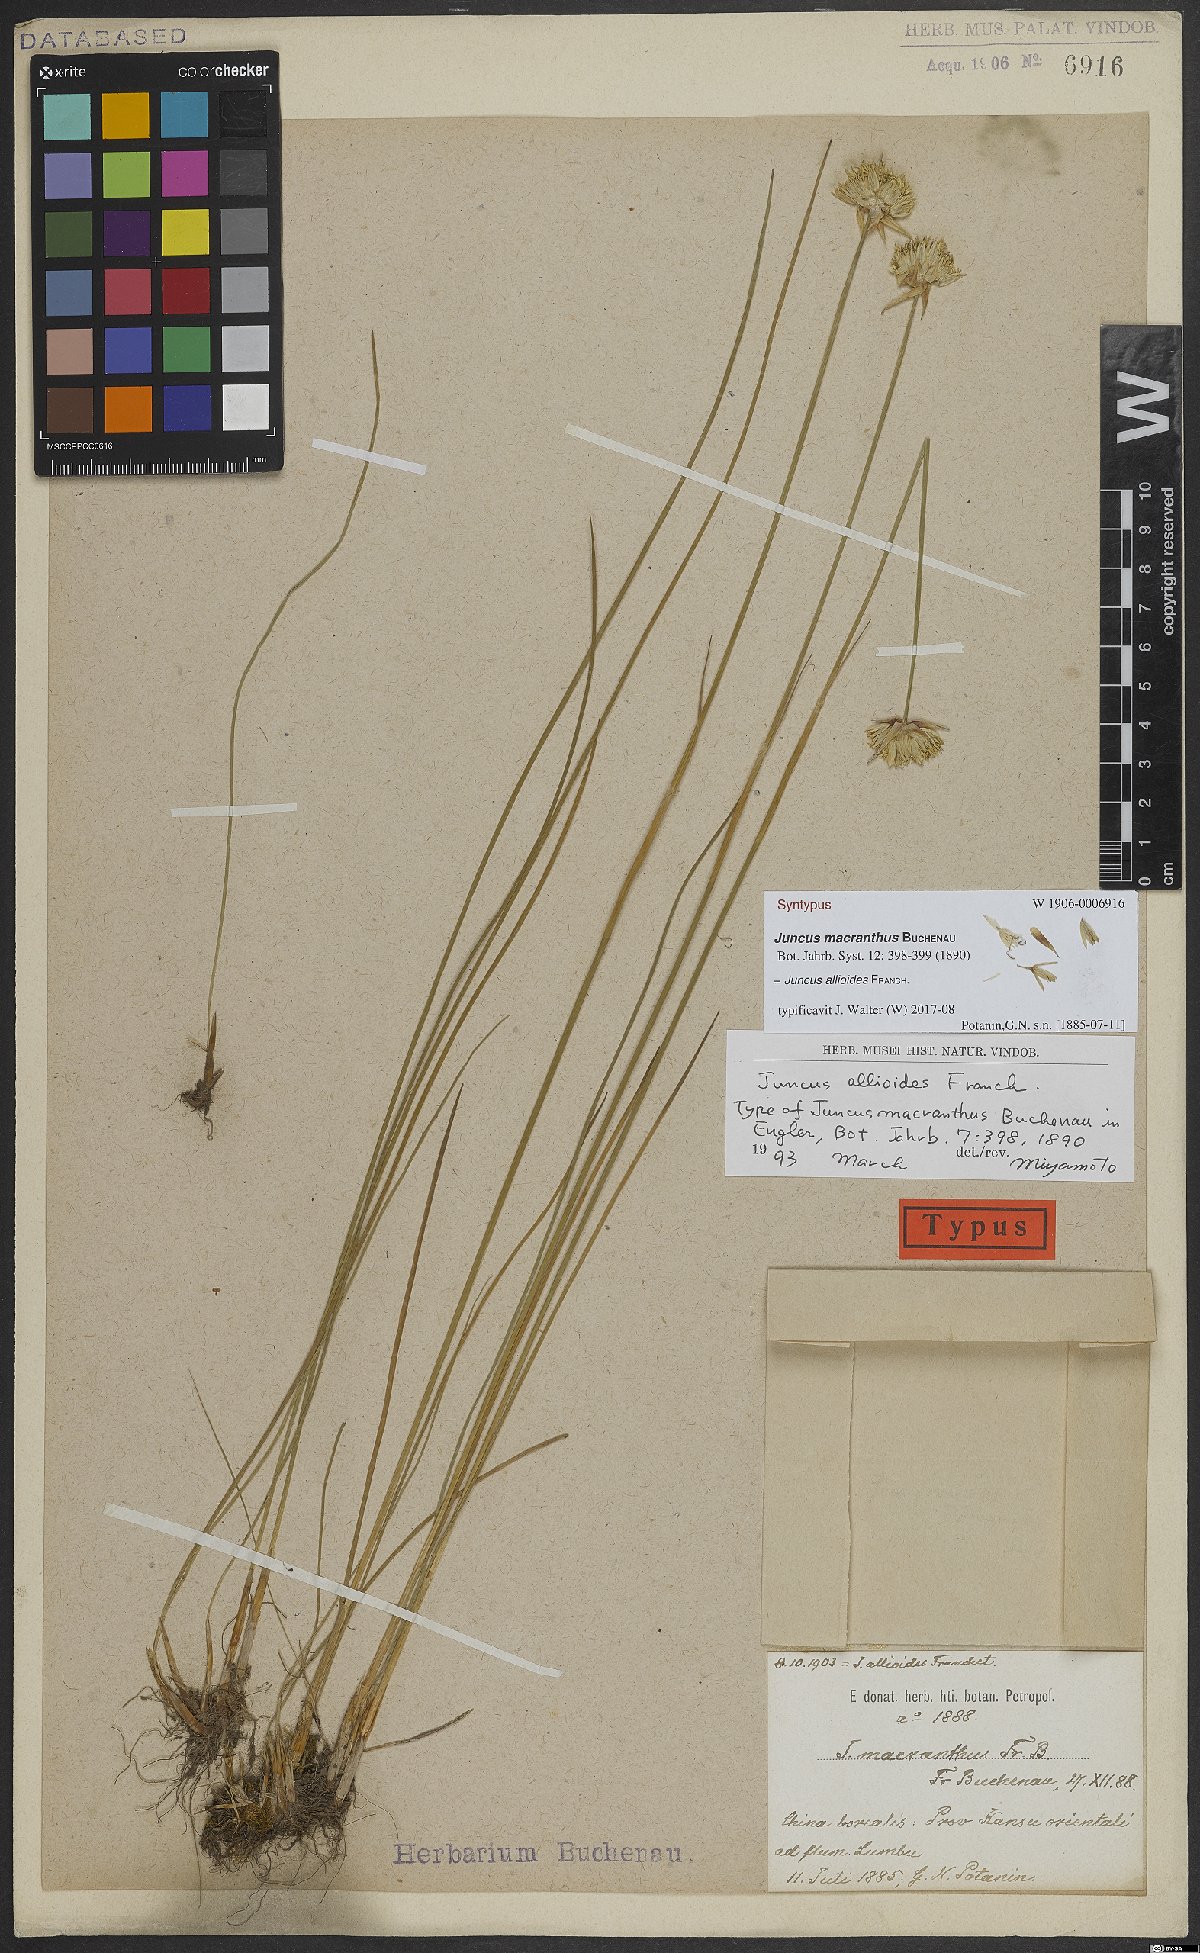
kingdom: Plantae
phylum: Tracheophyta
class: Liliopsida
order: Poales
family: Juncaceae
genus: Juncus
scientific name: Juncus allioides
